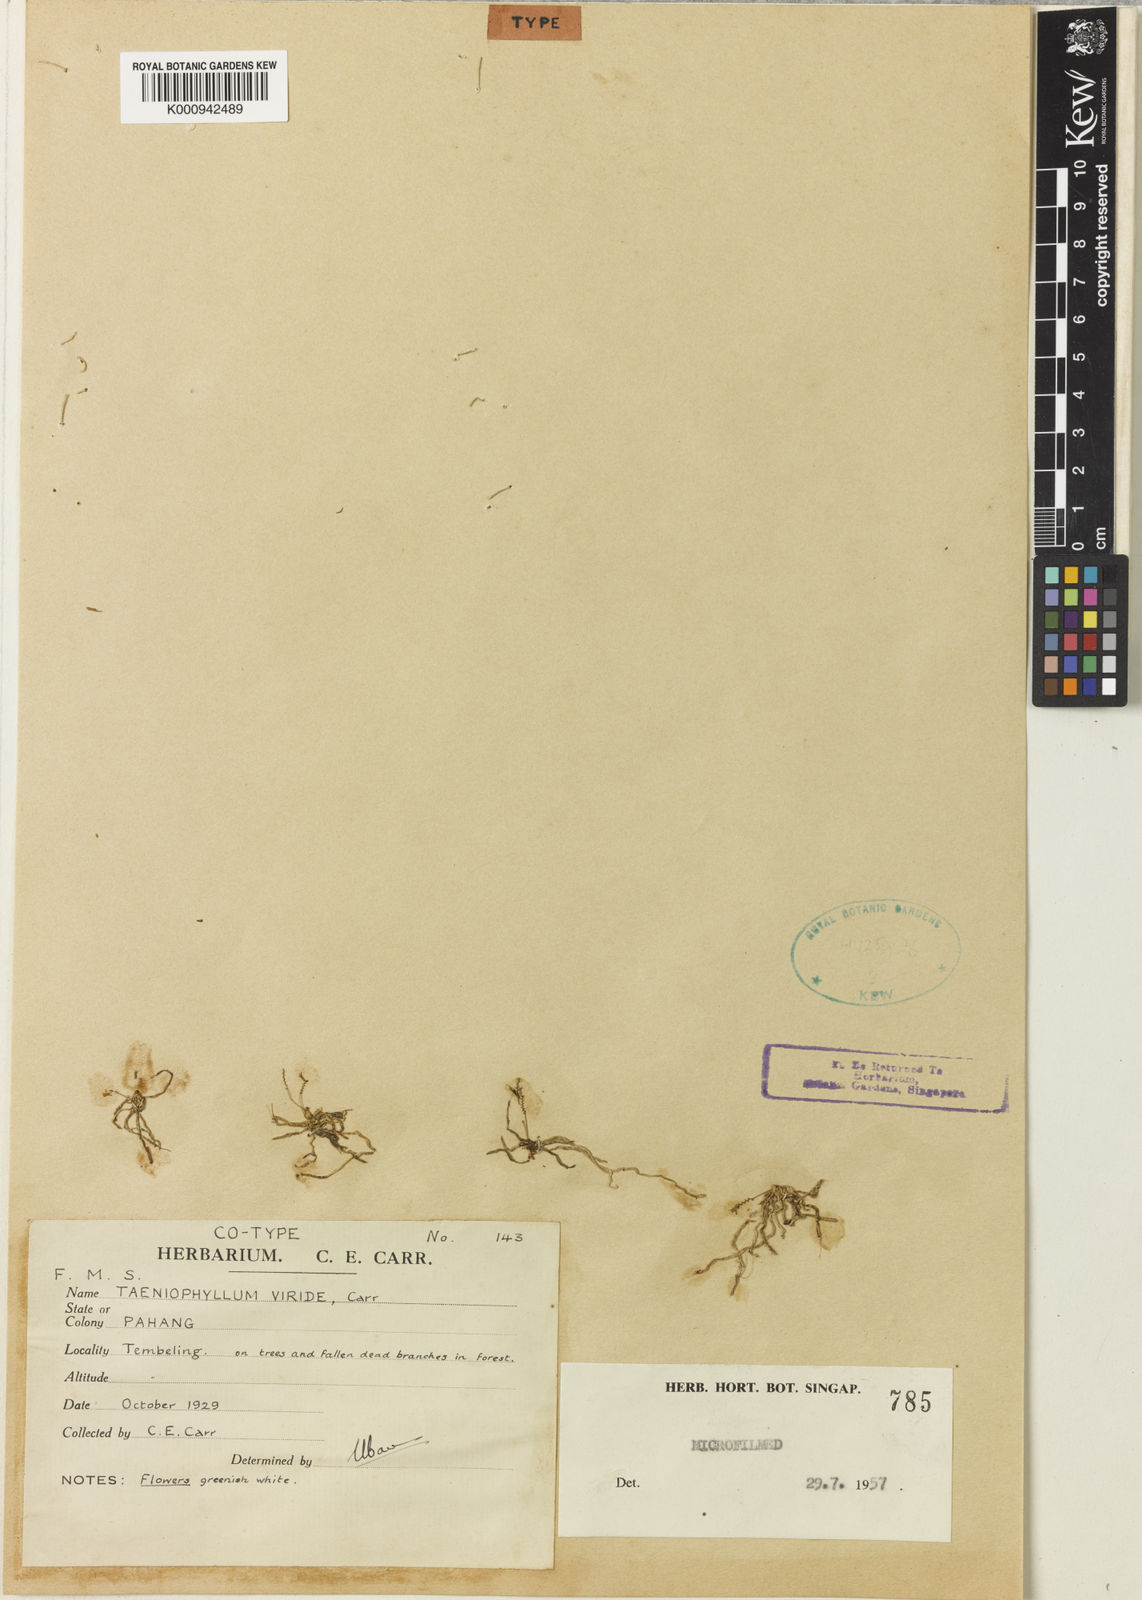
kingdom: Plantae
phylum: Tracheophyta
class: Liliopsida
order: Asparagales
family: Orchidaceae
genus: Taeniophyllum
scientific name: Taeniophyllum glandulosum
